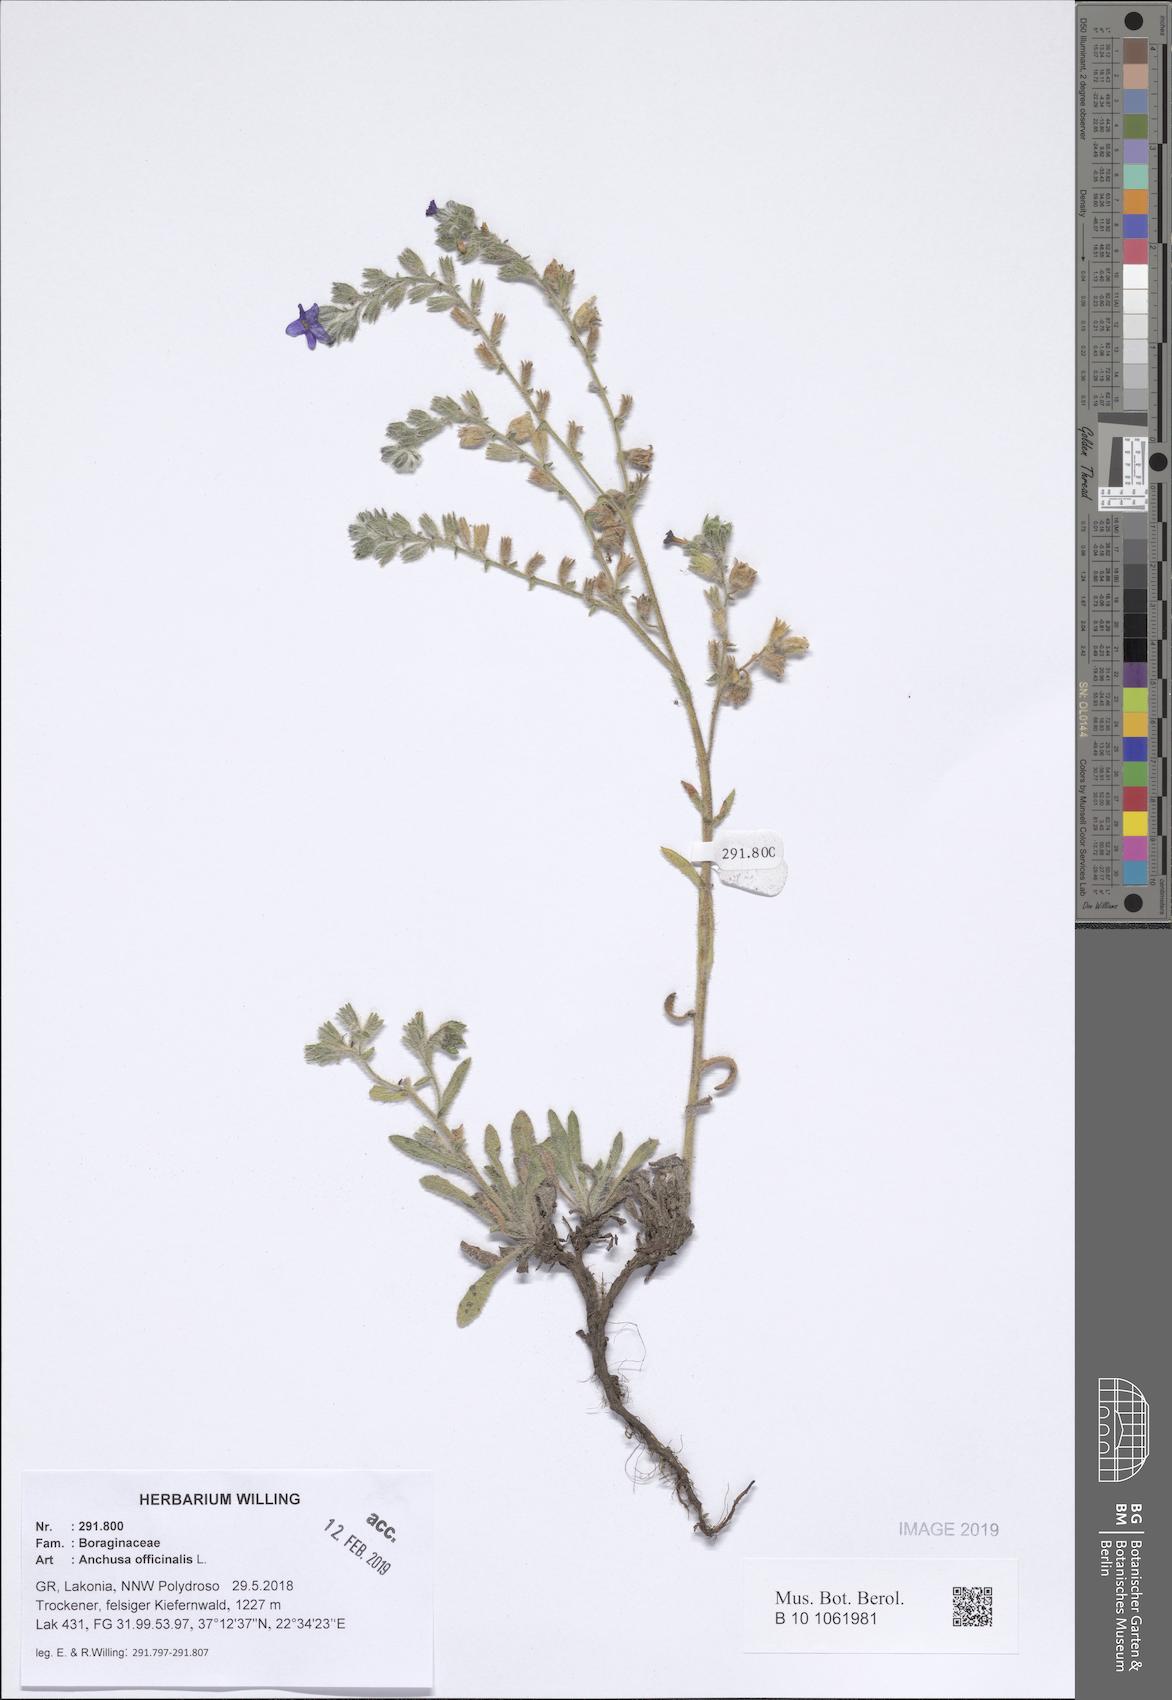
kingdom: Plantae
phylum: Tracheophyta
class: Magnoliopsida
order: Boraginales
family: Boraginaceae
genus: Anchusa
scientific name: Anchusa officinalis
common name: Alkanet
